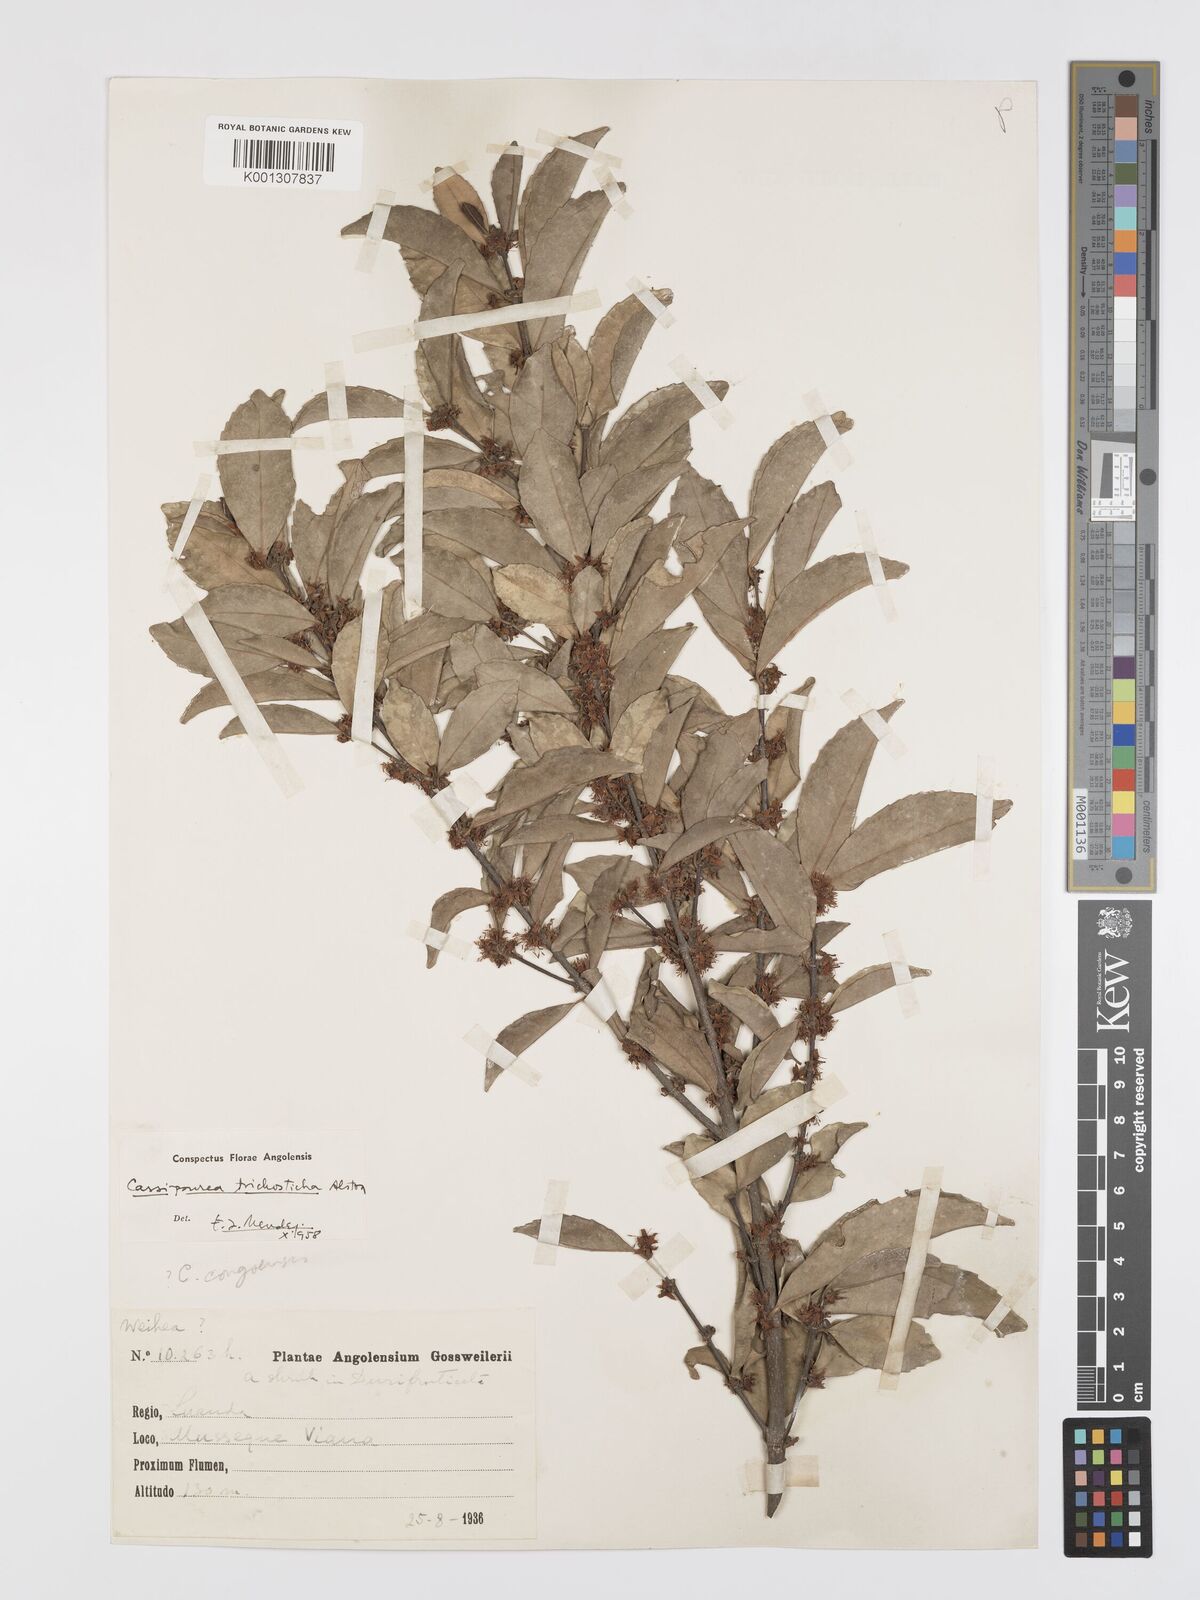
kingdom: Plantae
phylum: Tracheophyta
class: Magnoliopsida
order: Malpighiales
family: Rhizophoraceae
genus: Cassipourea
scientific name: Cassipourea trichosticha
